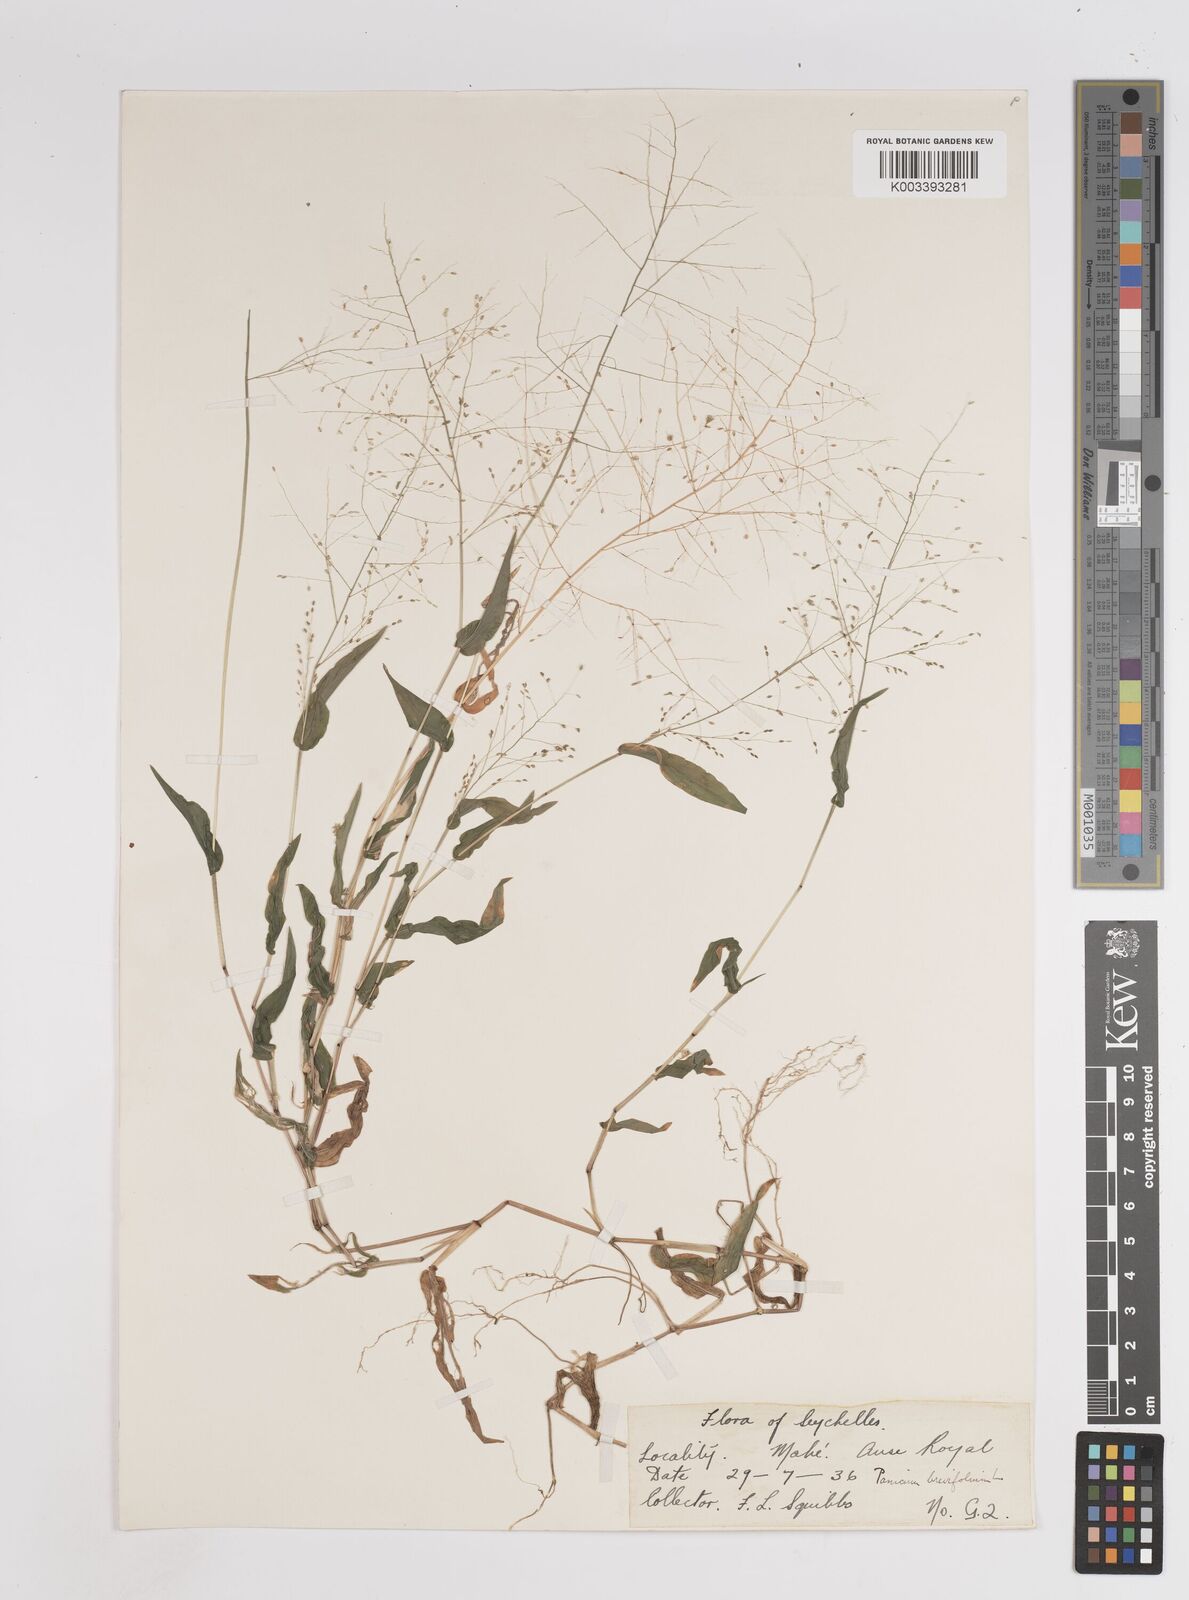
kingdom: Plantae
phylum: Tracheophyta
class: Liliopsida
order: Poales
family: Poaceae
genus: Panicum
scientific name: Panicum brevifolium
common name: Shortleaf panic grass
